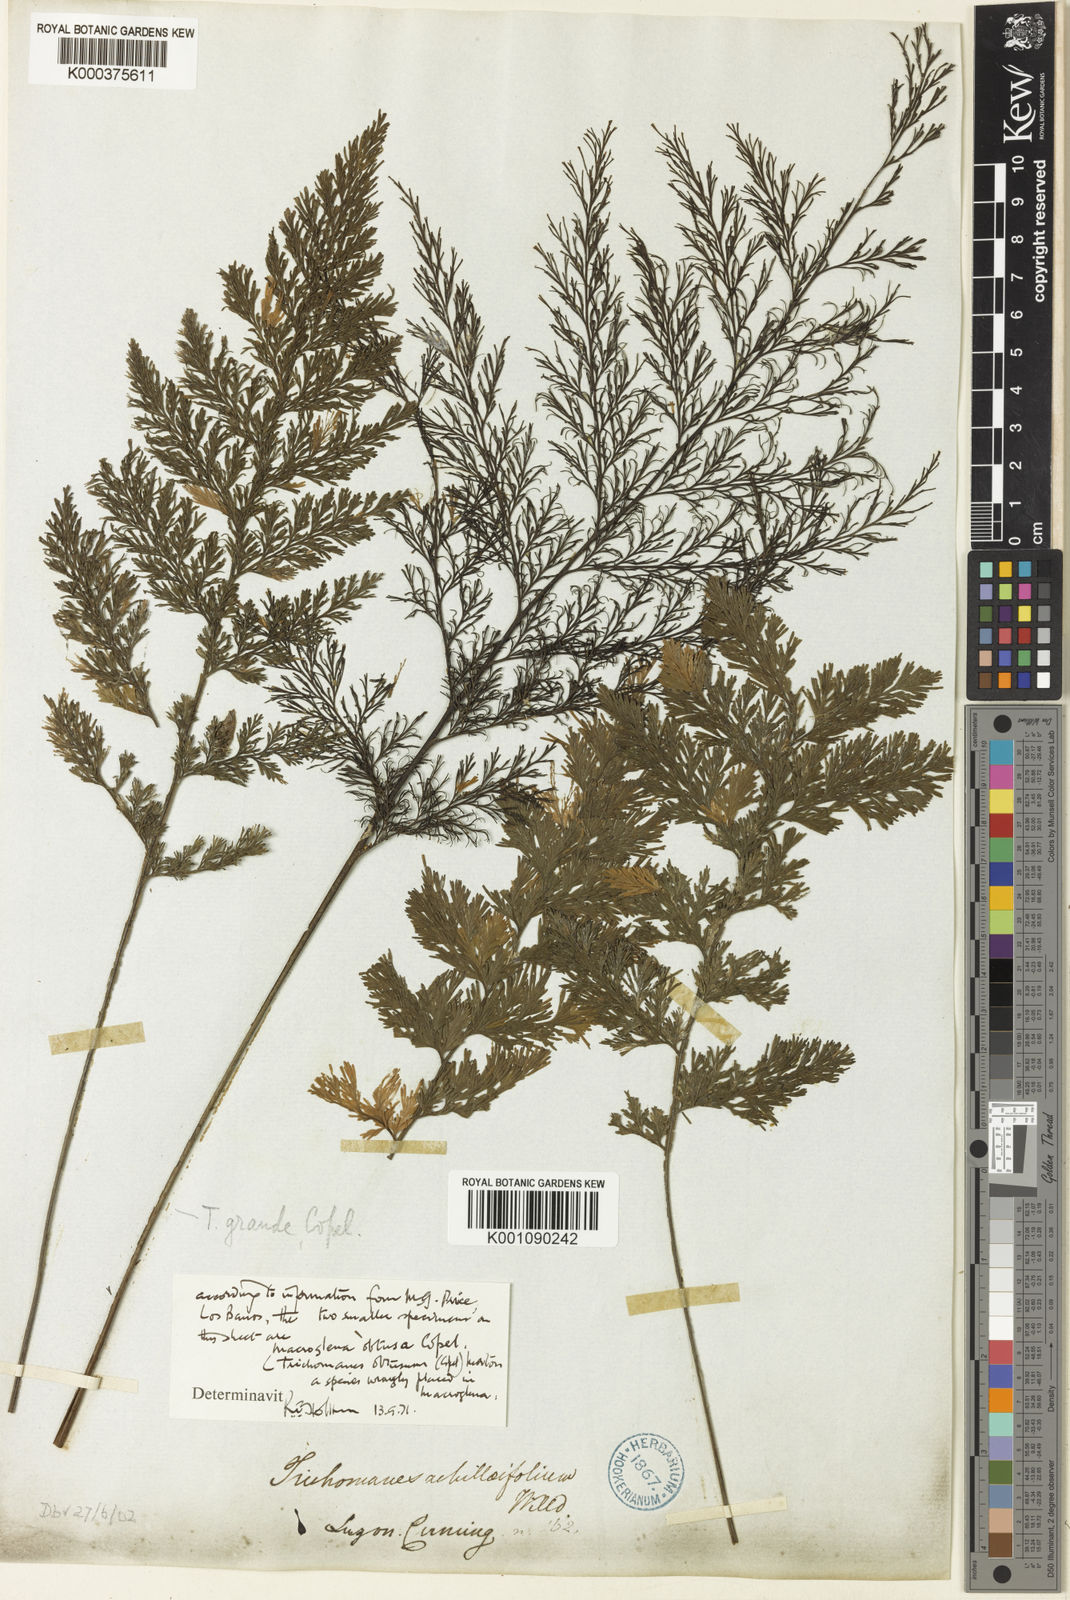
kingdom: Plantae
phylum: Tracheophyta
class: Polypodiopsida
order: Hymenophyllales
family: Hymenophyllaceae
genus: Crepidomanes
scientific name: Crepidomanes grande
